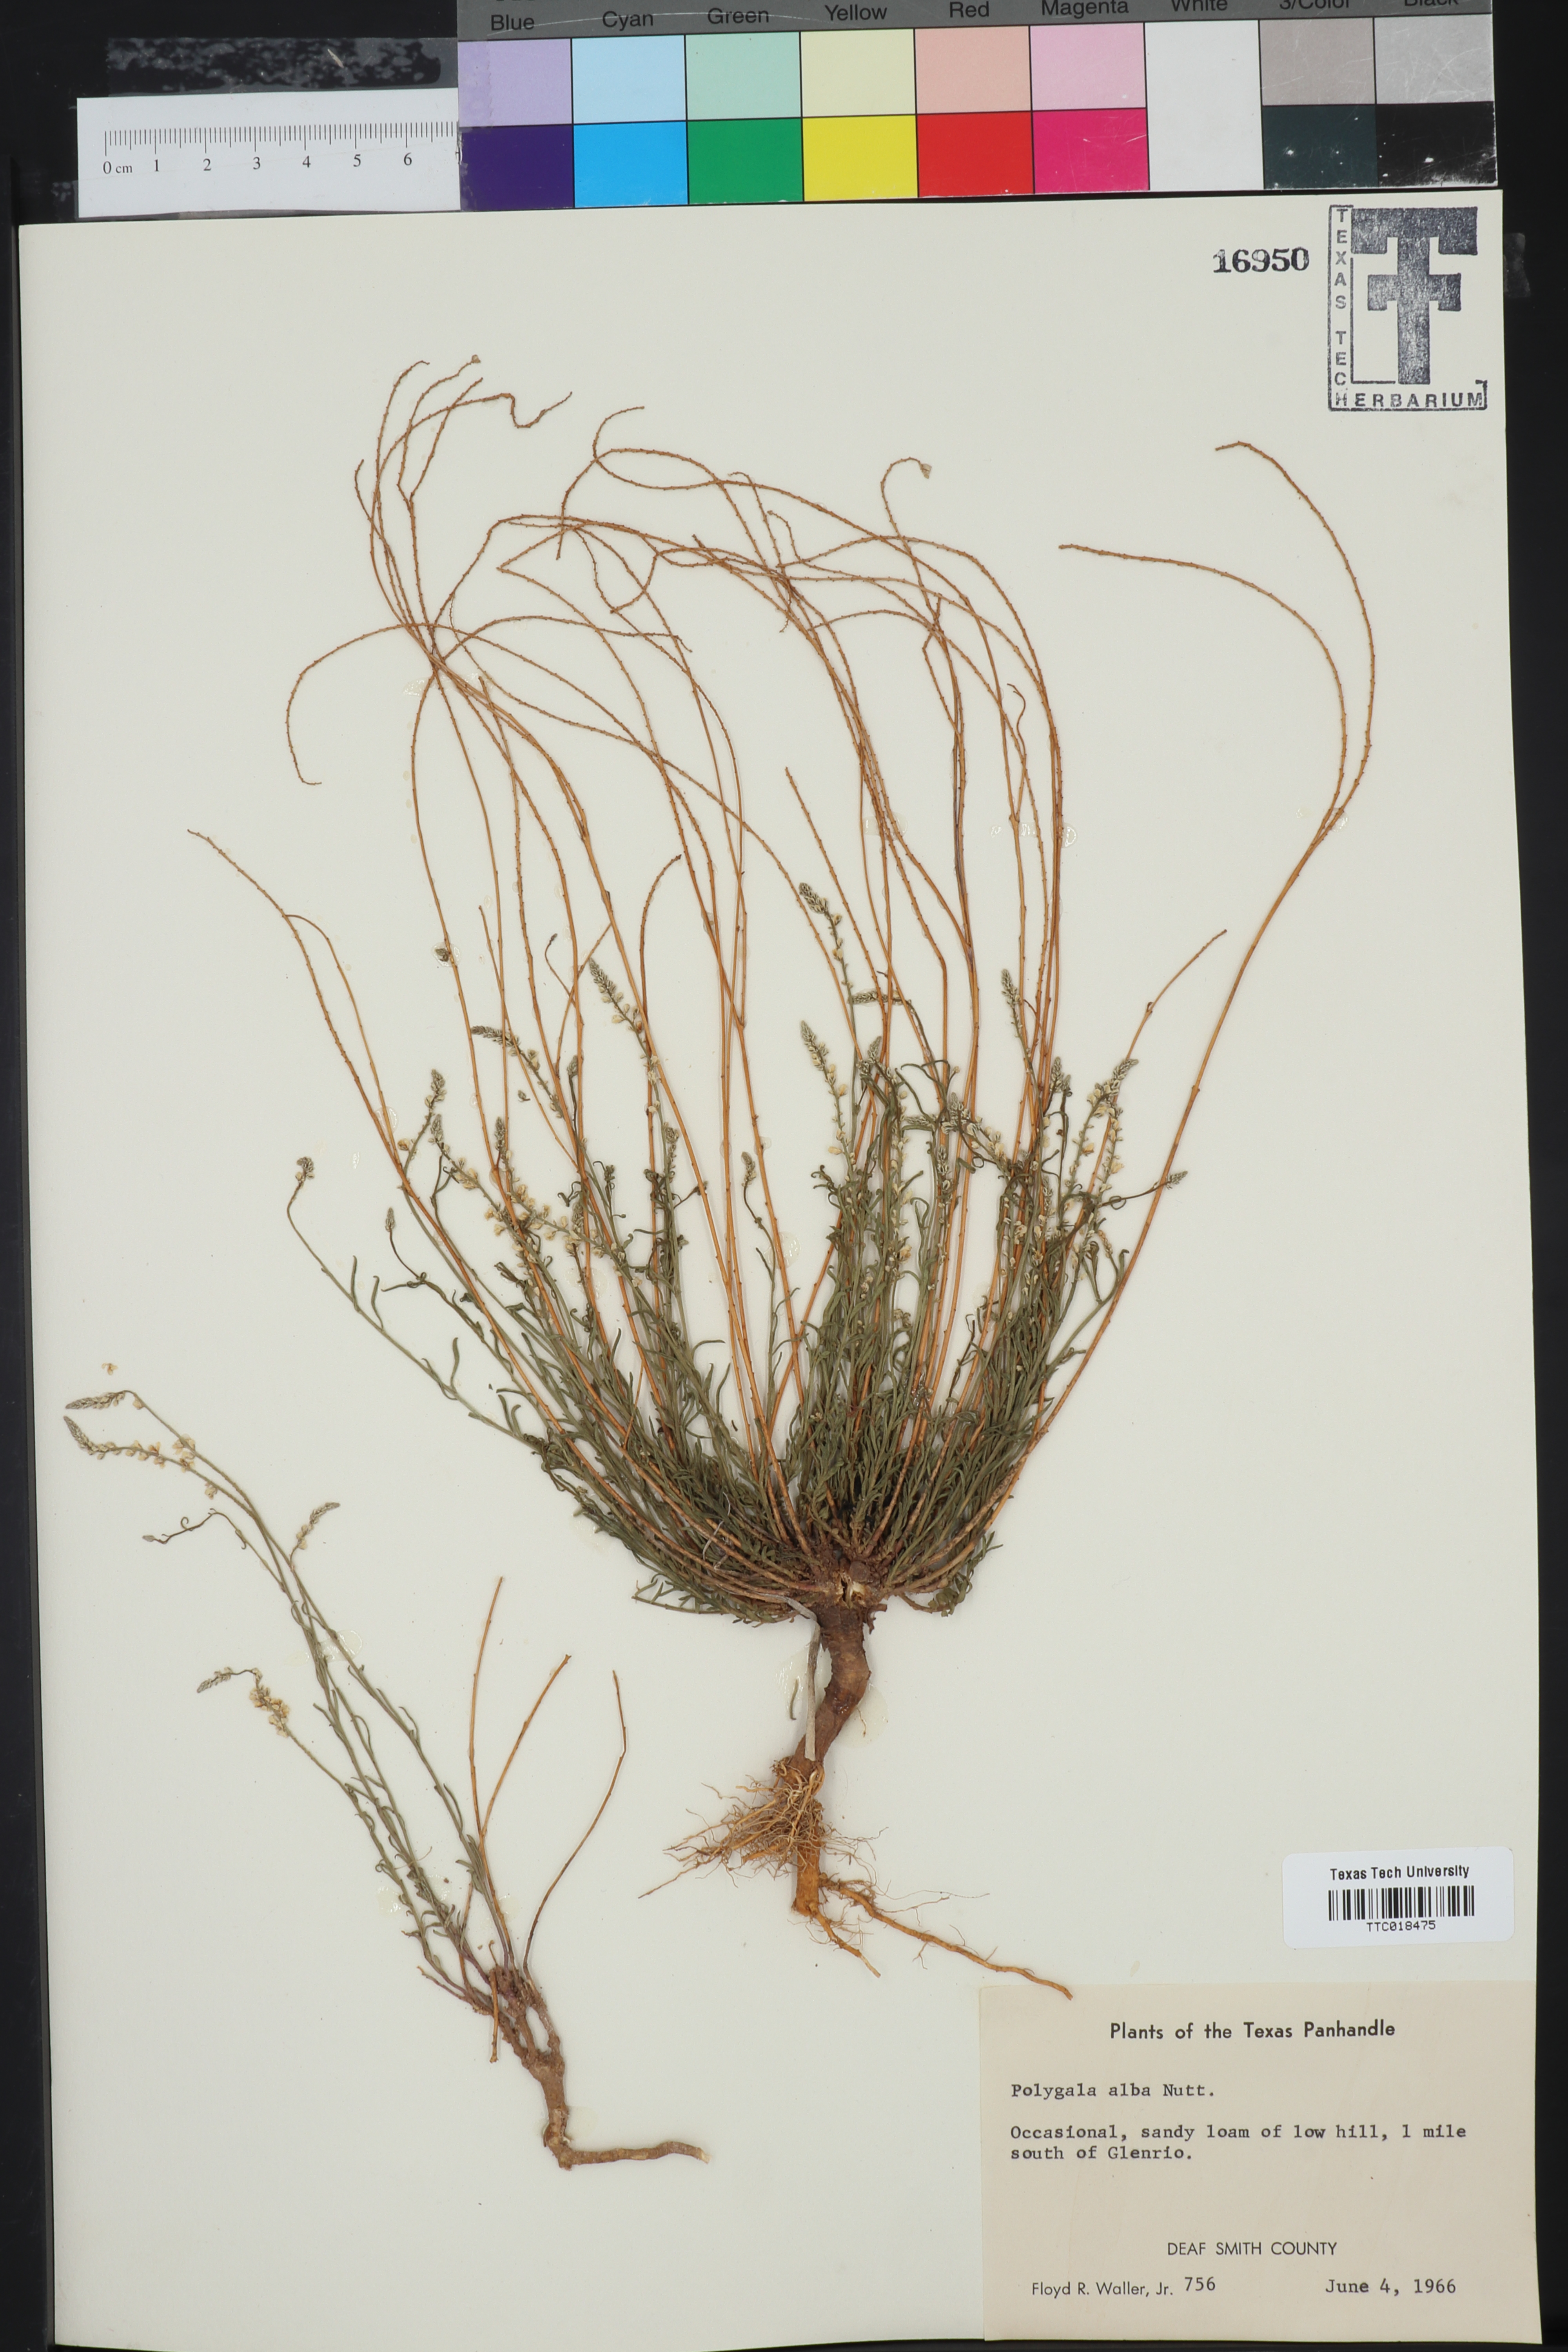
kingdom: Plantae
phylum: Tracheophyta
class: Magnoliopsida
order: Fabales
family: Polygalaceae
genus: Polygala
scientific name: Polygala alba
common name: White milkwort
